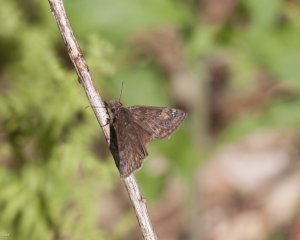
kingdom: Animalia
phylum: Arthropoda
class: Insecta
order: Lepidoptera
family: Hesperiidae
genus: Gesta
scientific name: Gesta
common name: Wild Indigo Duskywing
